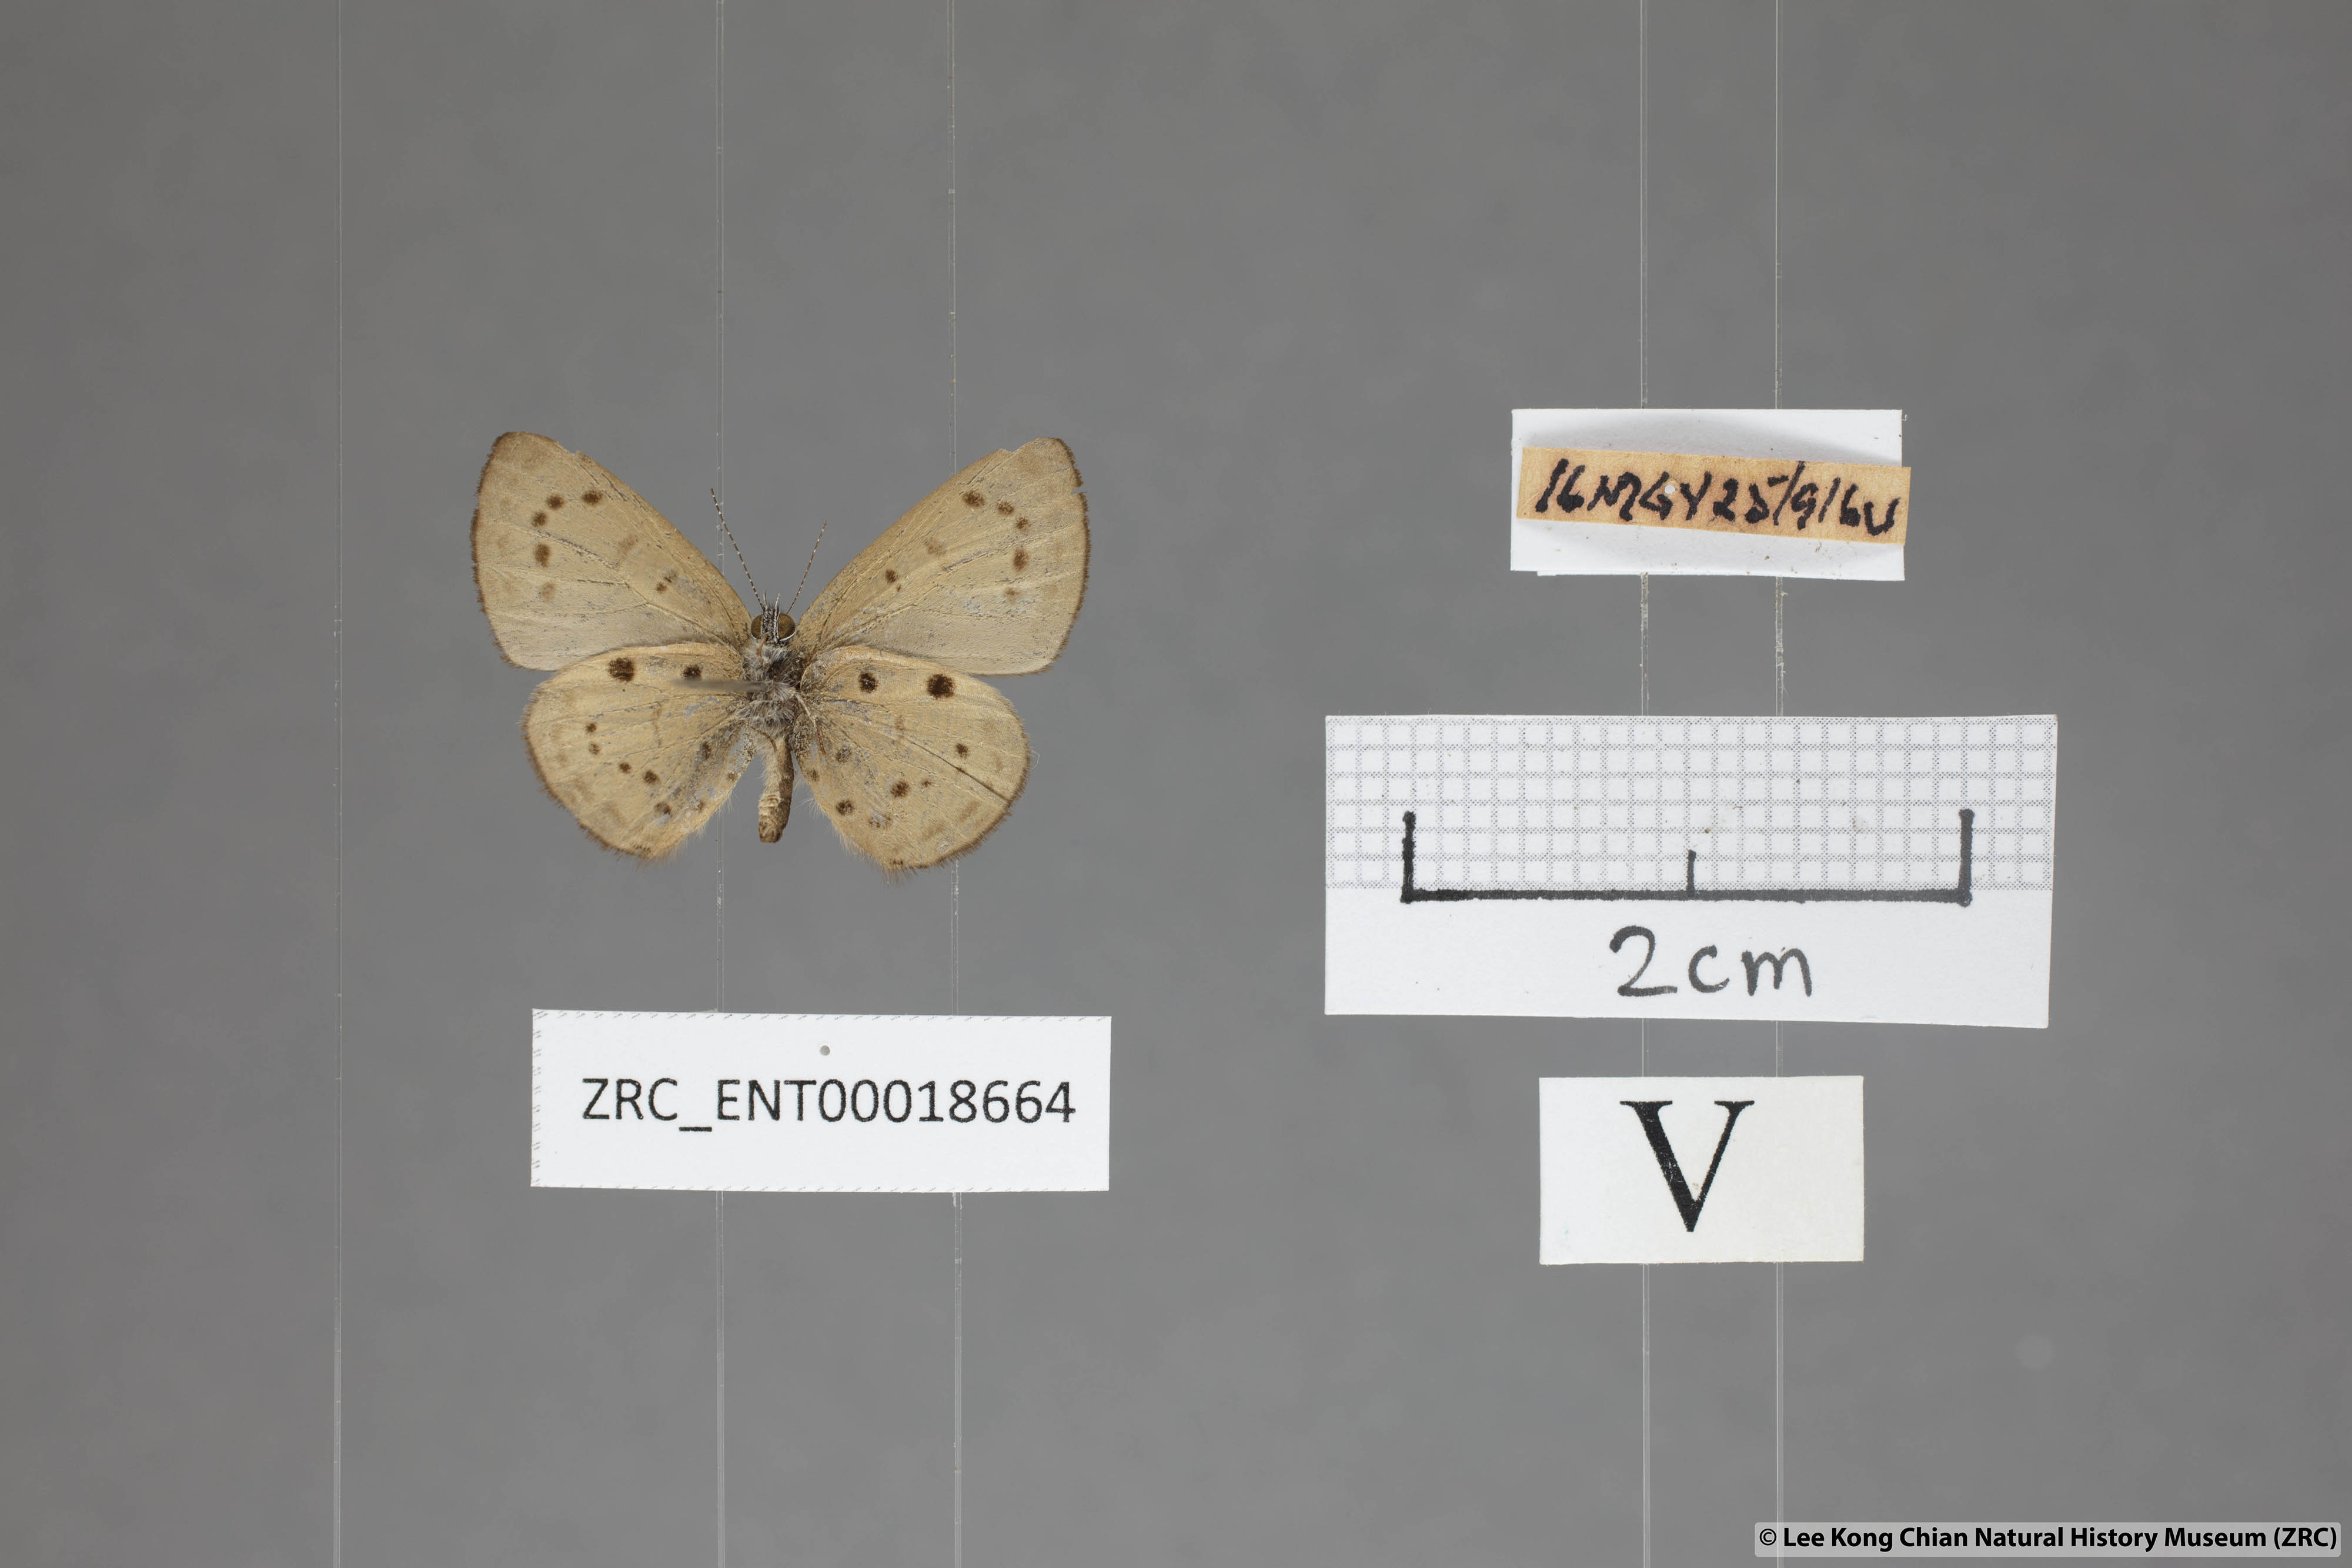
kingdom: Animalia
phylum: Arthropoda
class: Insecta
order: Lepidoptera
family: Lycaenidae
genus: Una
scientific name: Una usta
